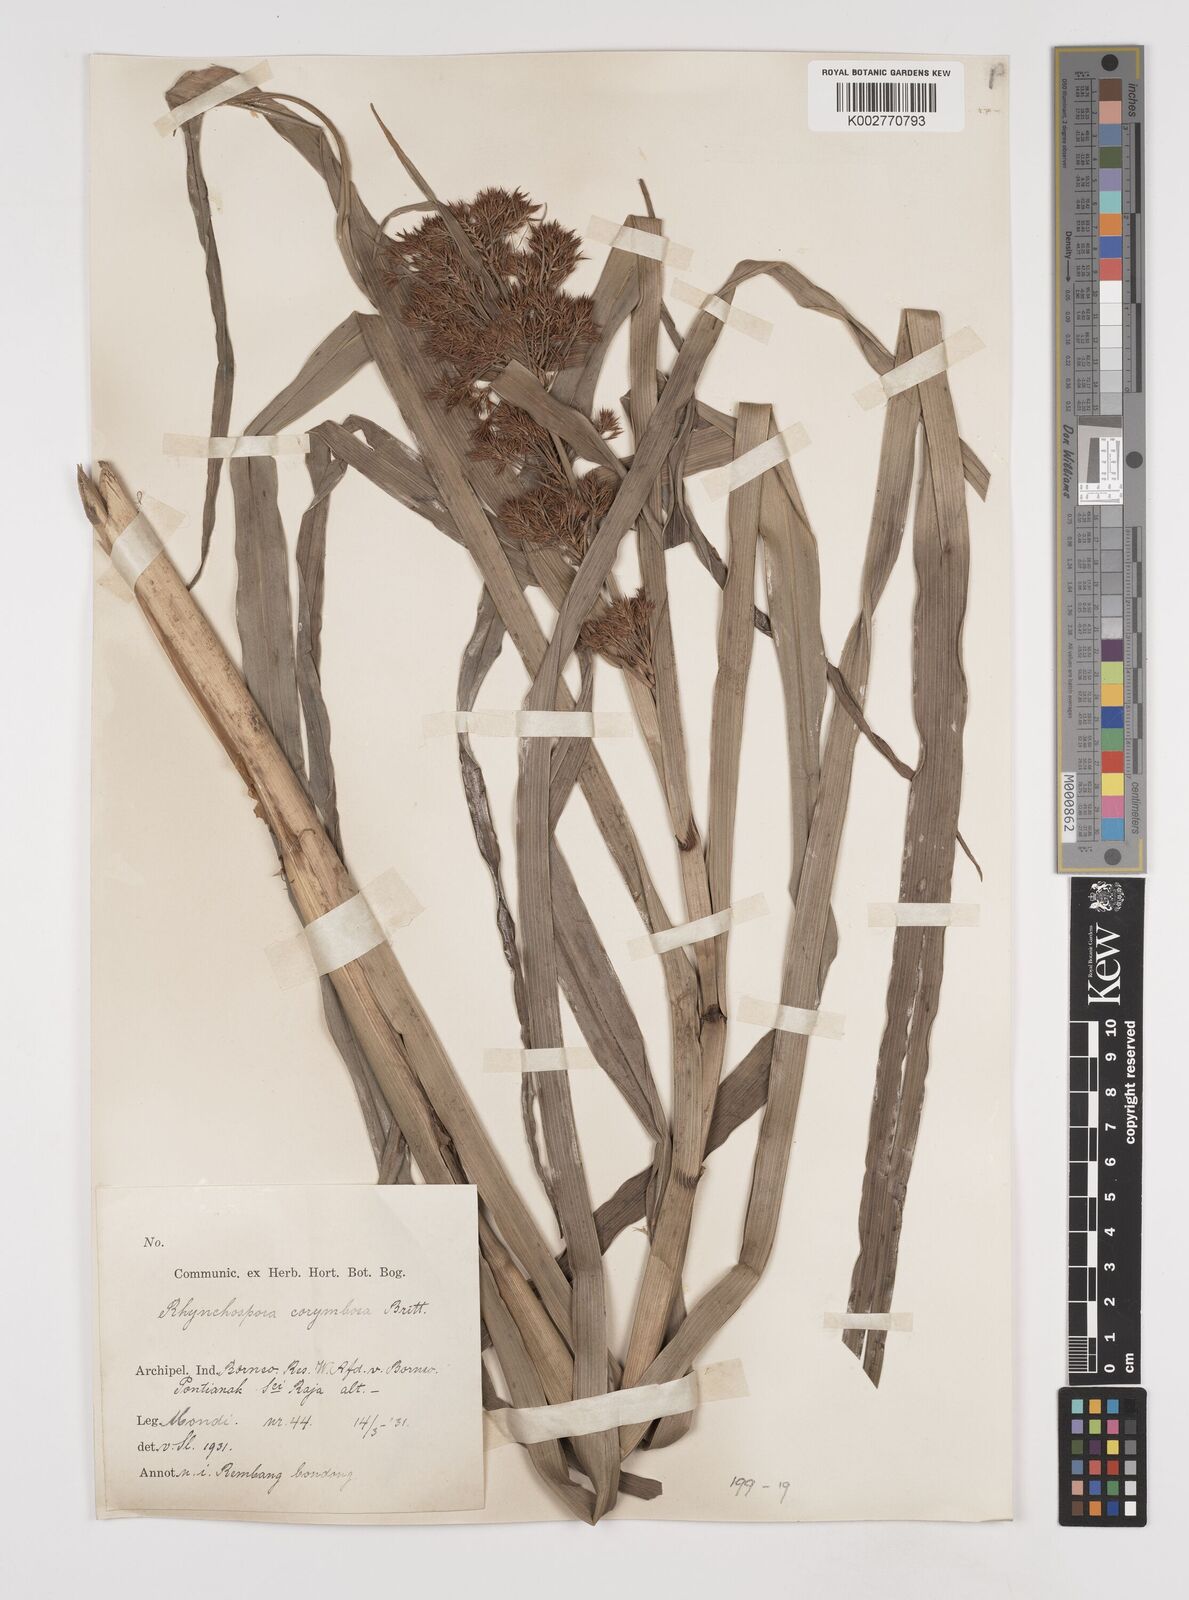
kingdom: Plantae
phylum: Tracheophyta
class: Liliopsida
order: Poales
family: Cyperaceae
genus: Rhynchospora
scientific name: Rhynchospora corymbosa
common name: Golden beak sedge
